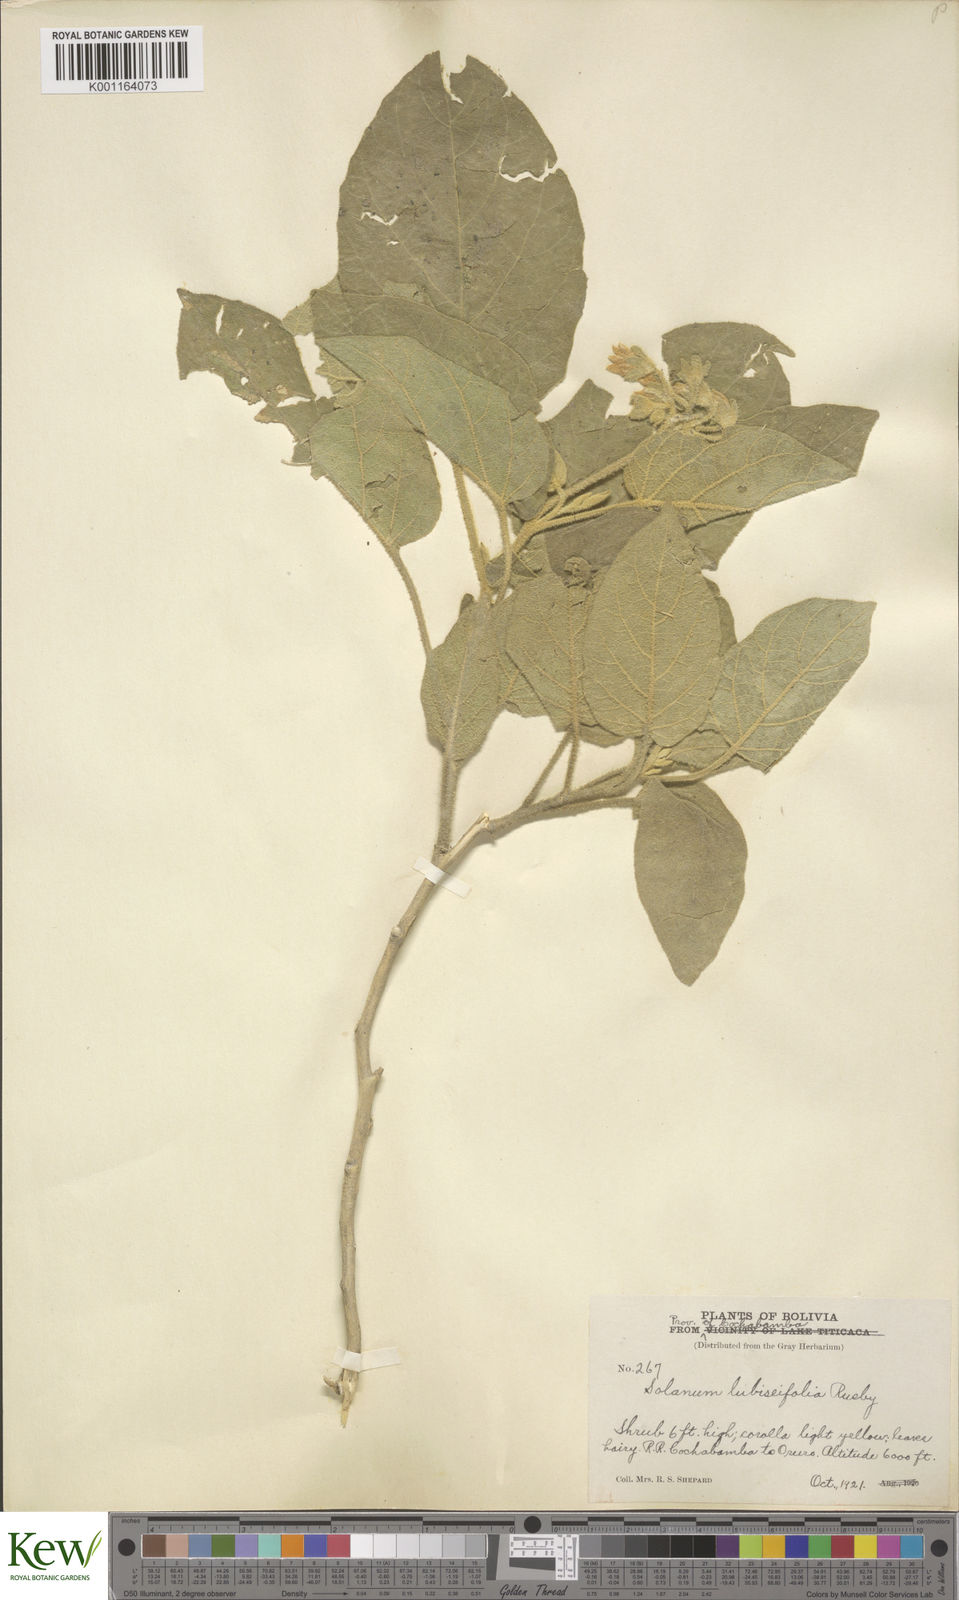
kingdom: Plantae
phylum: Tracheophyta
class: Magnoliopsida
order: Solanales
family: Solanaceae
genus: Solanum
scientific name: Solanum abutiloides
